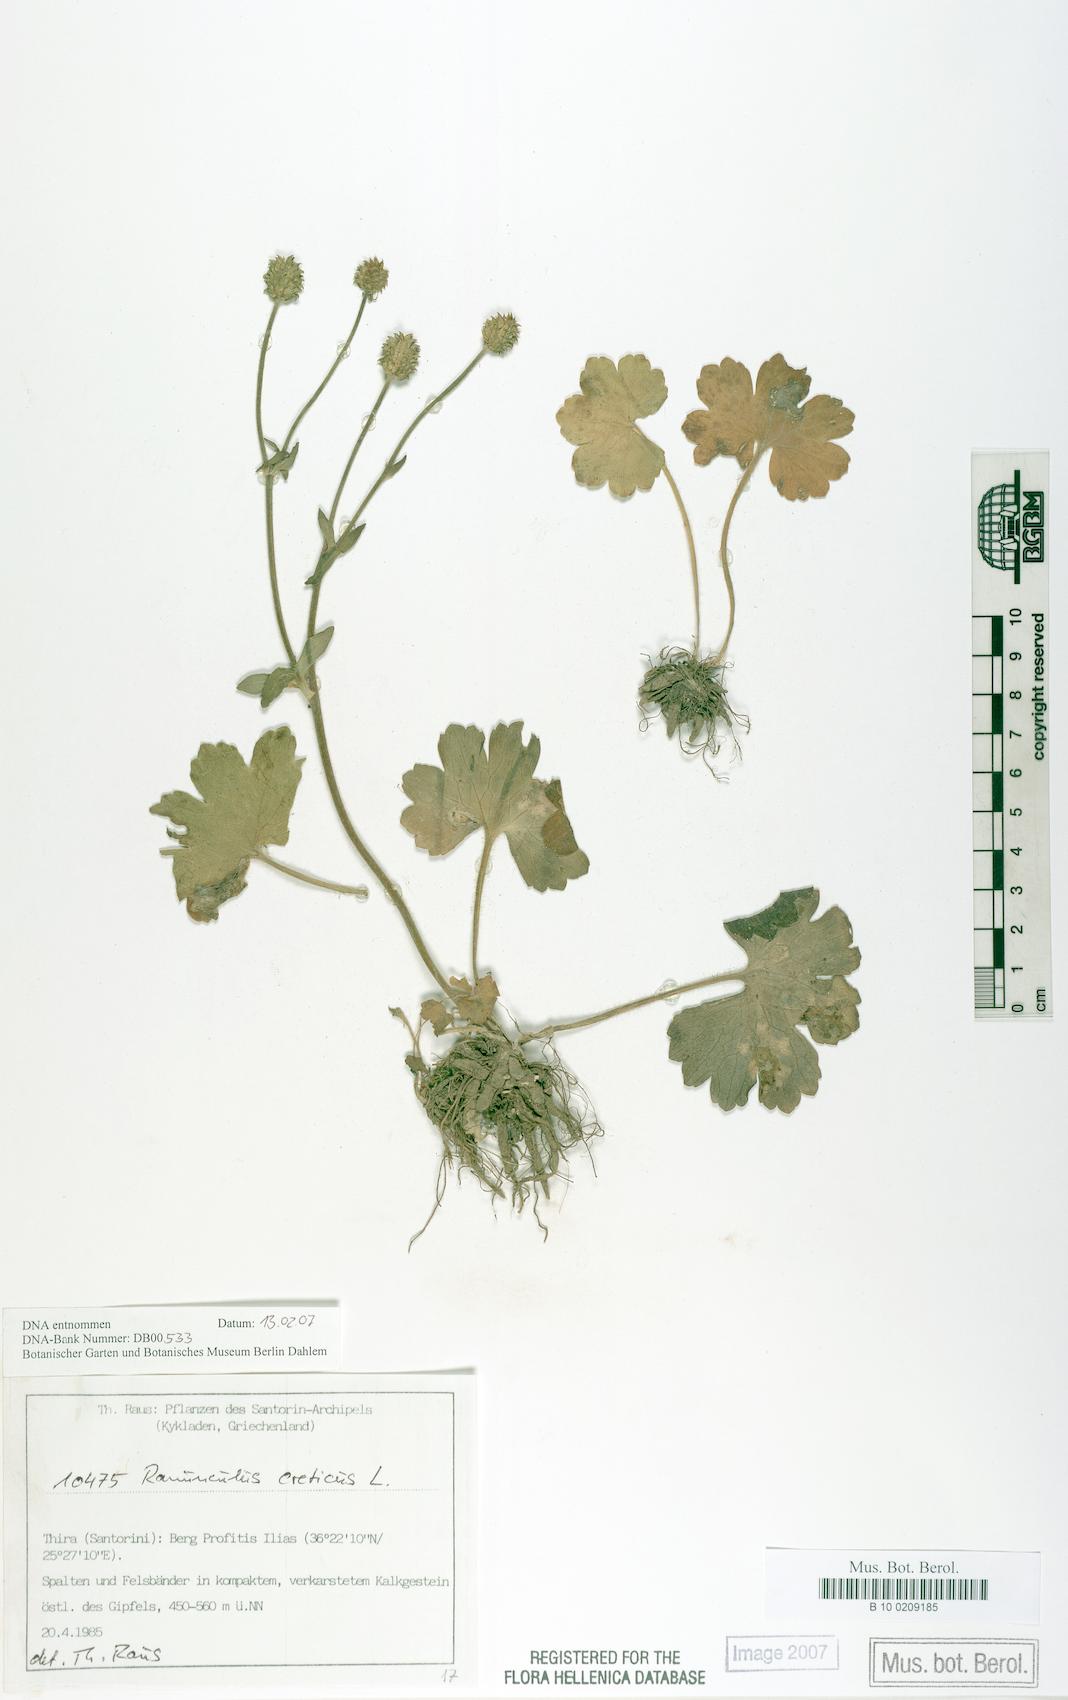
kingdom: Plantae
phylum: Tracheophyta
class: Magnoliopsida
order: Ranunculales
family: Ranunculaceae
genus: Ranunculus
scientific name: Ranunculus creticus
